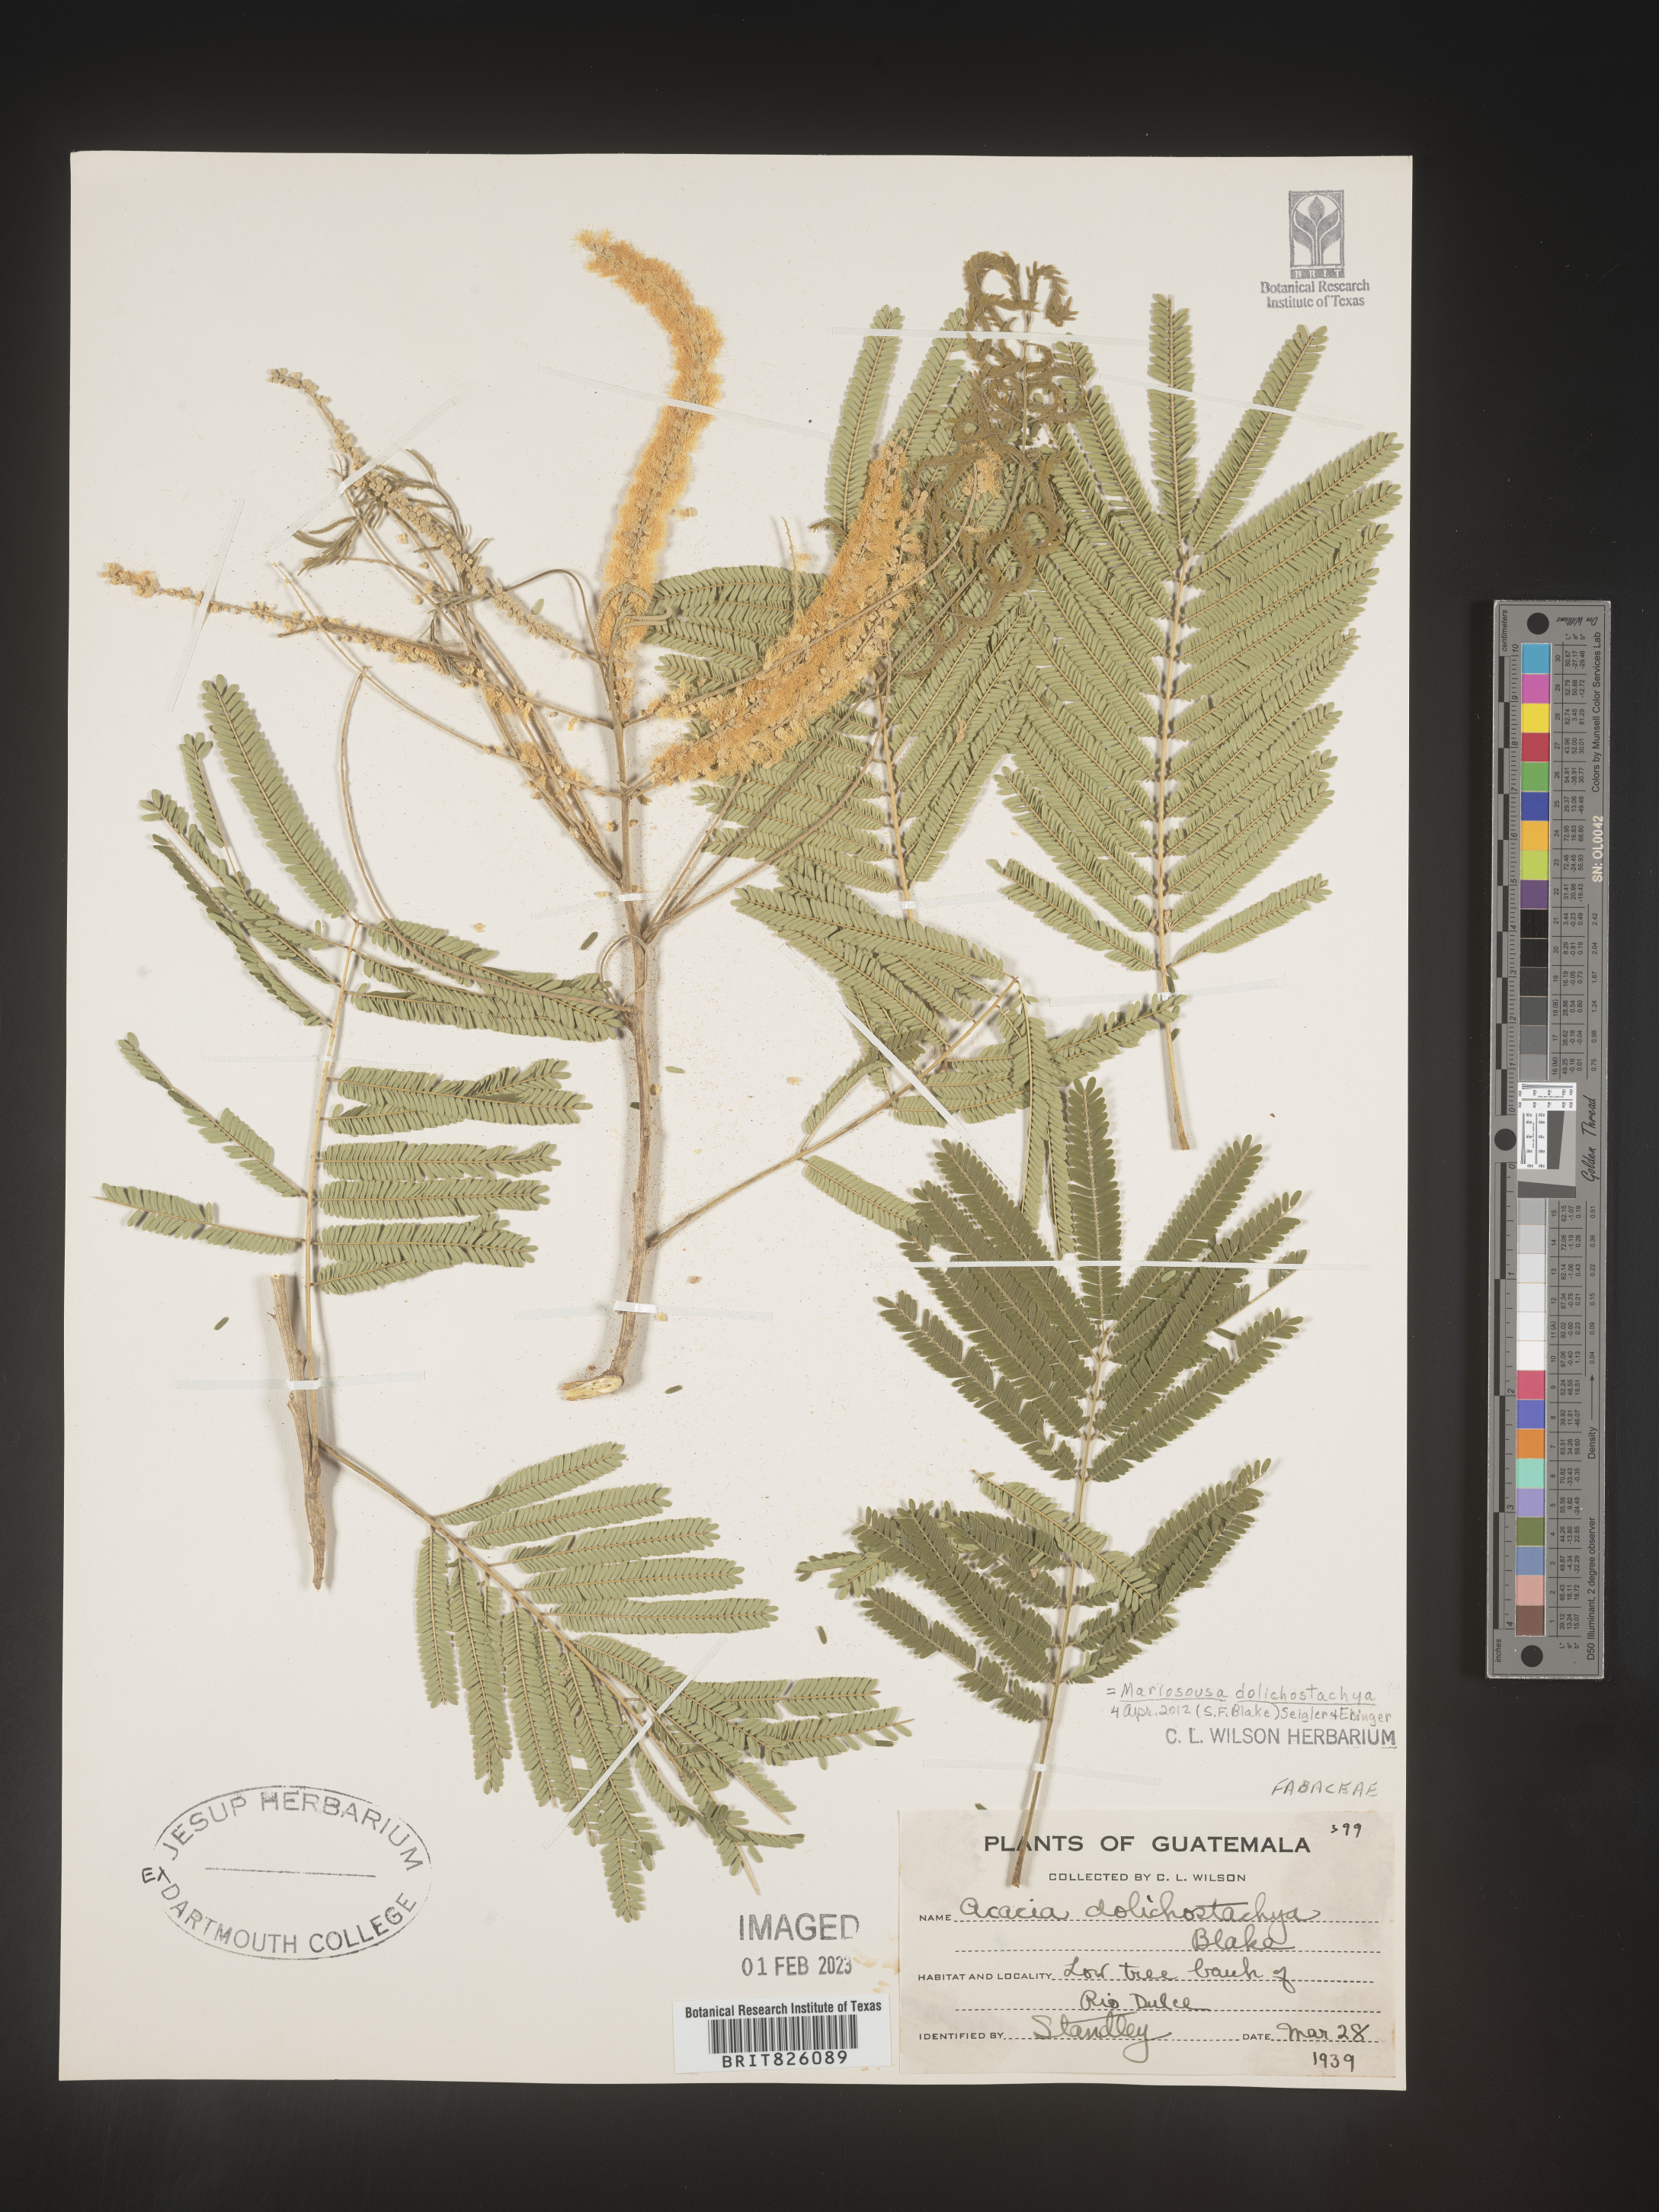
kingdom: Plantae
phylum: Tracheophyta
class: Magnoliopsida
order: Fabales
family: Fabaceae
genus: Mariosousa
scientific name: Mariosousa dolichostachya
